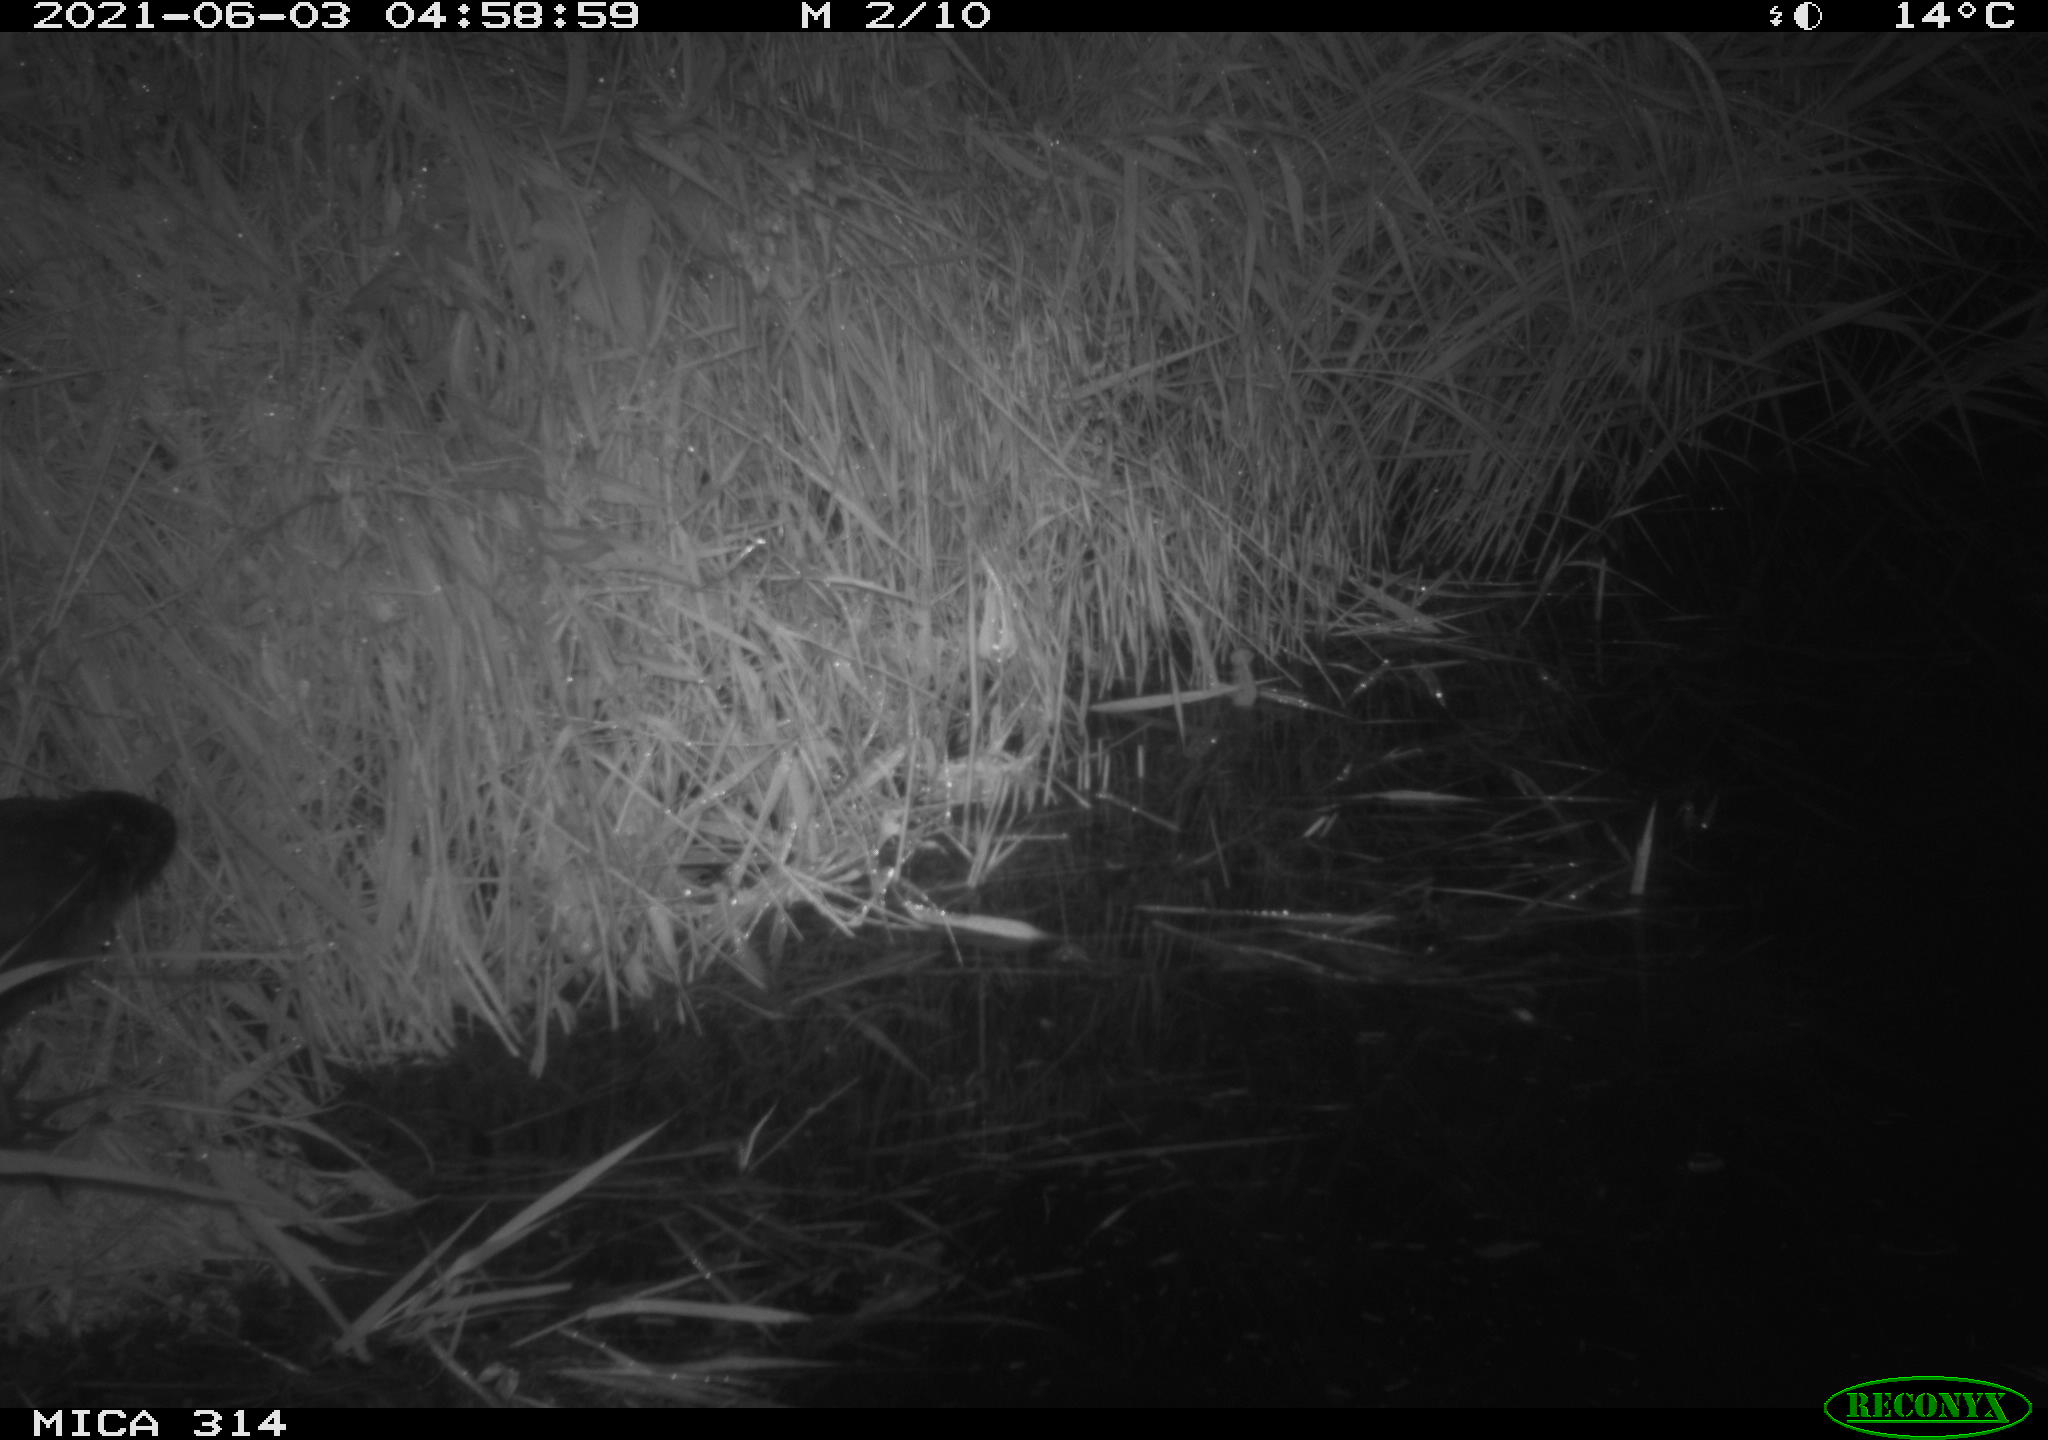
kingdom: Animalia
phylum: Chordata
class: Aves
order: Gruiformes
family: Rallidae
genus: Fulica
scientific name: Fulica atra
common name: Eurasian coot
